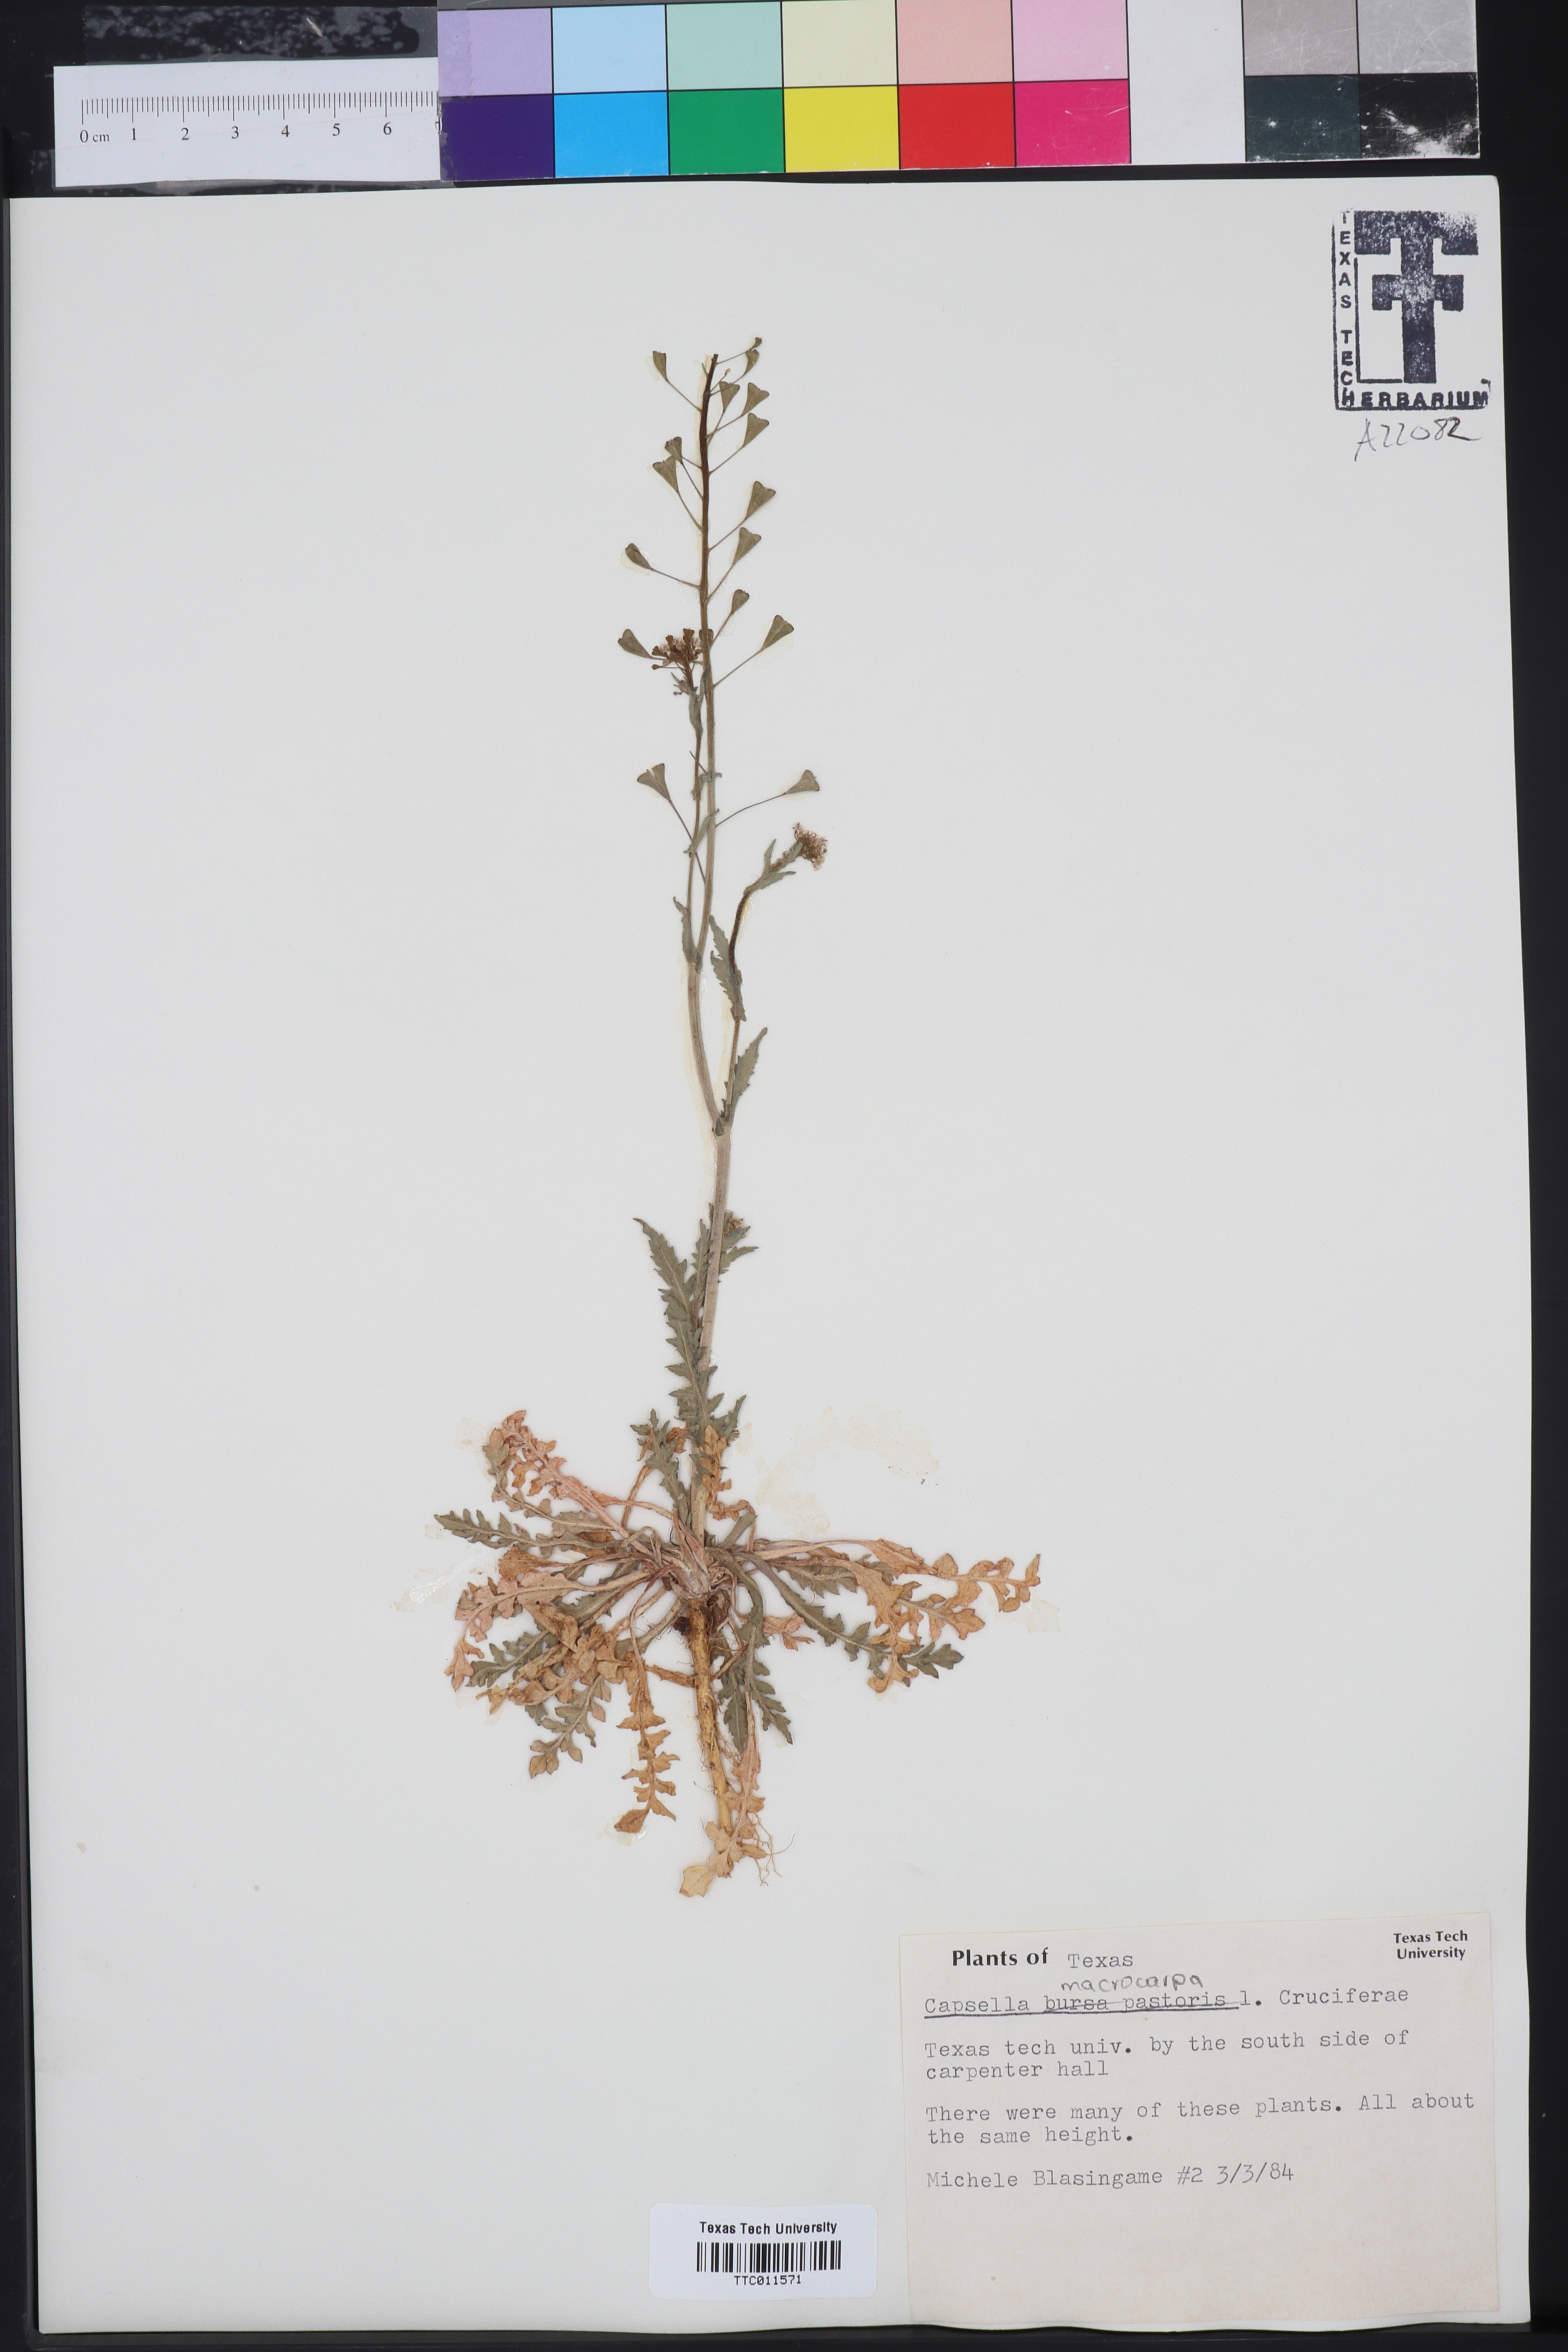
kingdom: Plantae
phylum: Tracheophyta
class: Magnoliopsida
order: Brassicales
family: Brassicaceae
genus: Capsella
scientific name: Capsella bursa-pastoris
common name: Shepherd's purse
